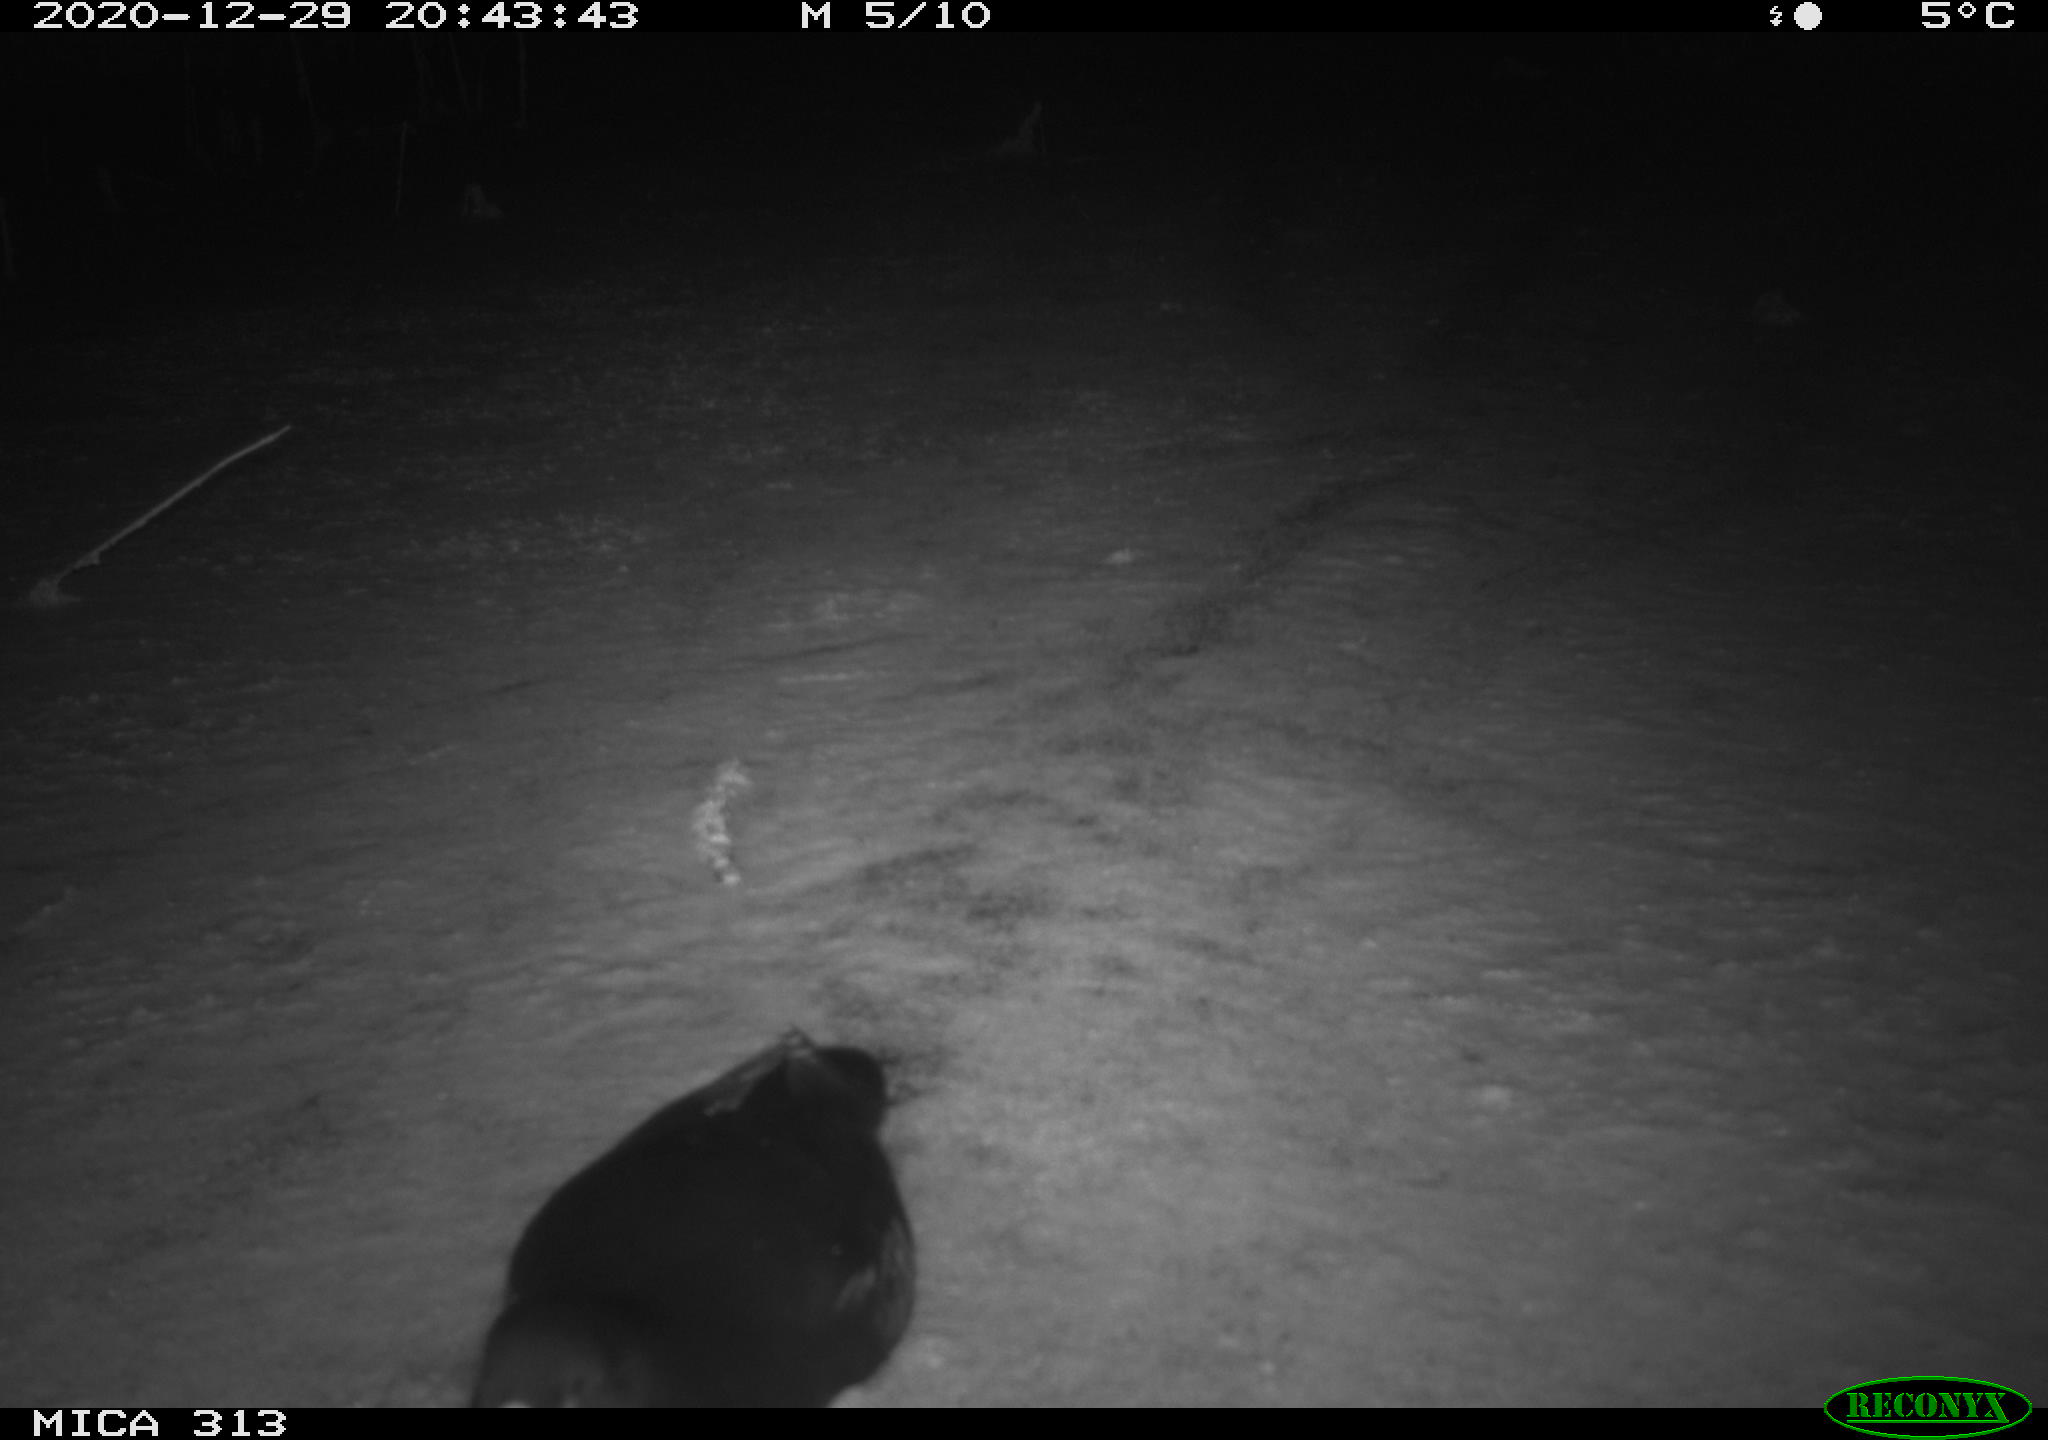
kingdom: Animalia
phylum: Chordata
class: Aves
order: Gruiformes
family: Rallidae
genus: Fulica
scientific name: Fulica atra
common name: Eurasian coot
